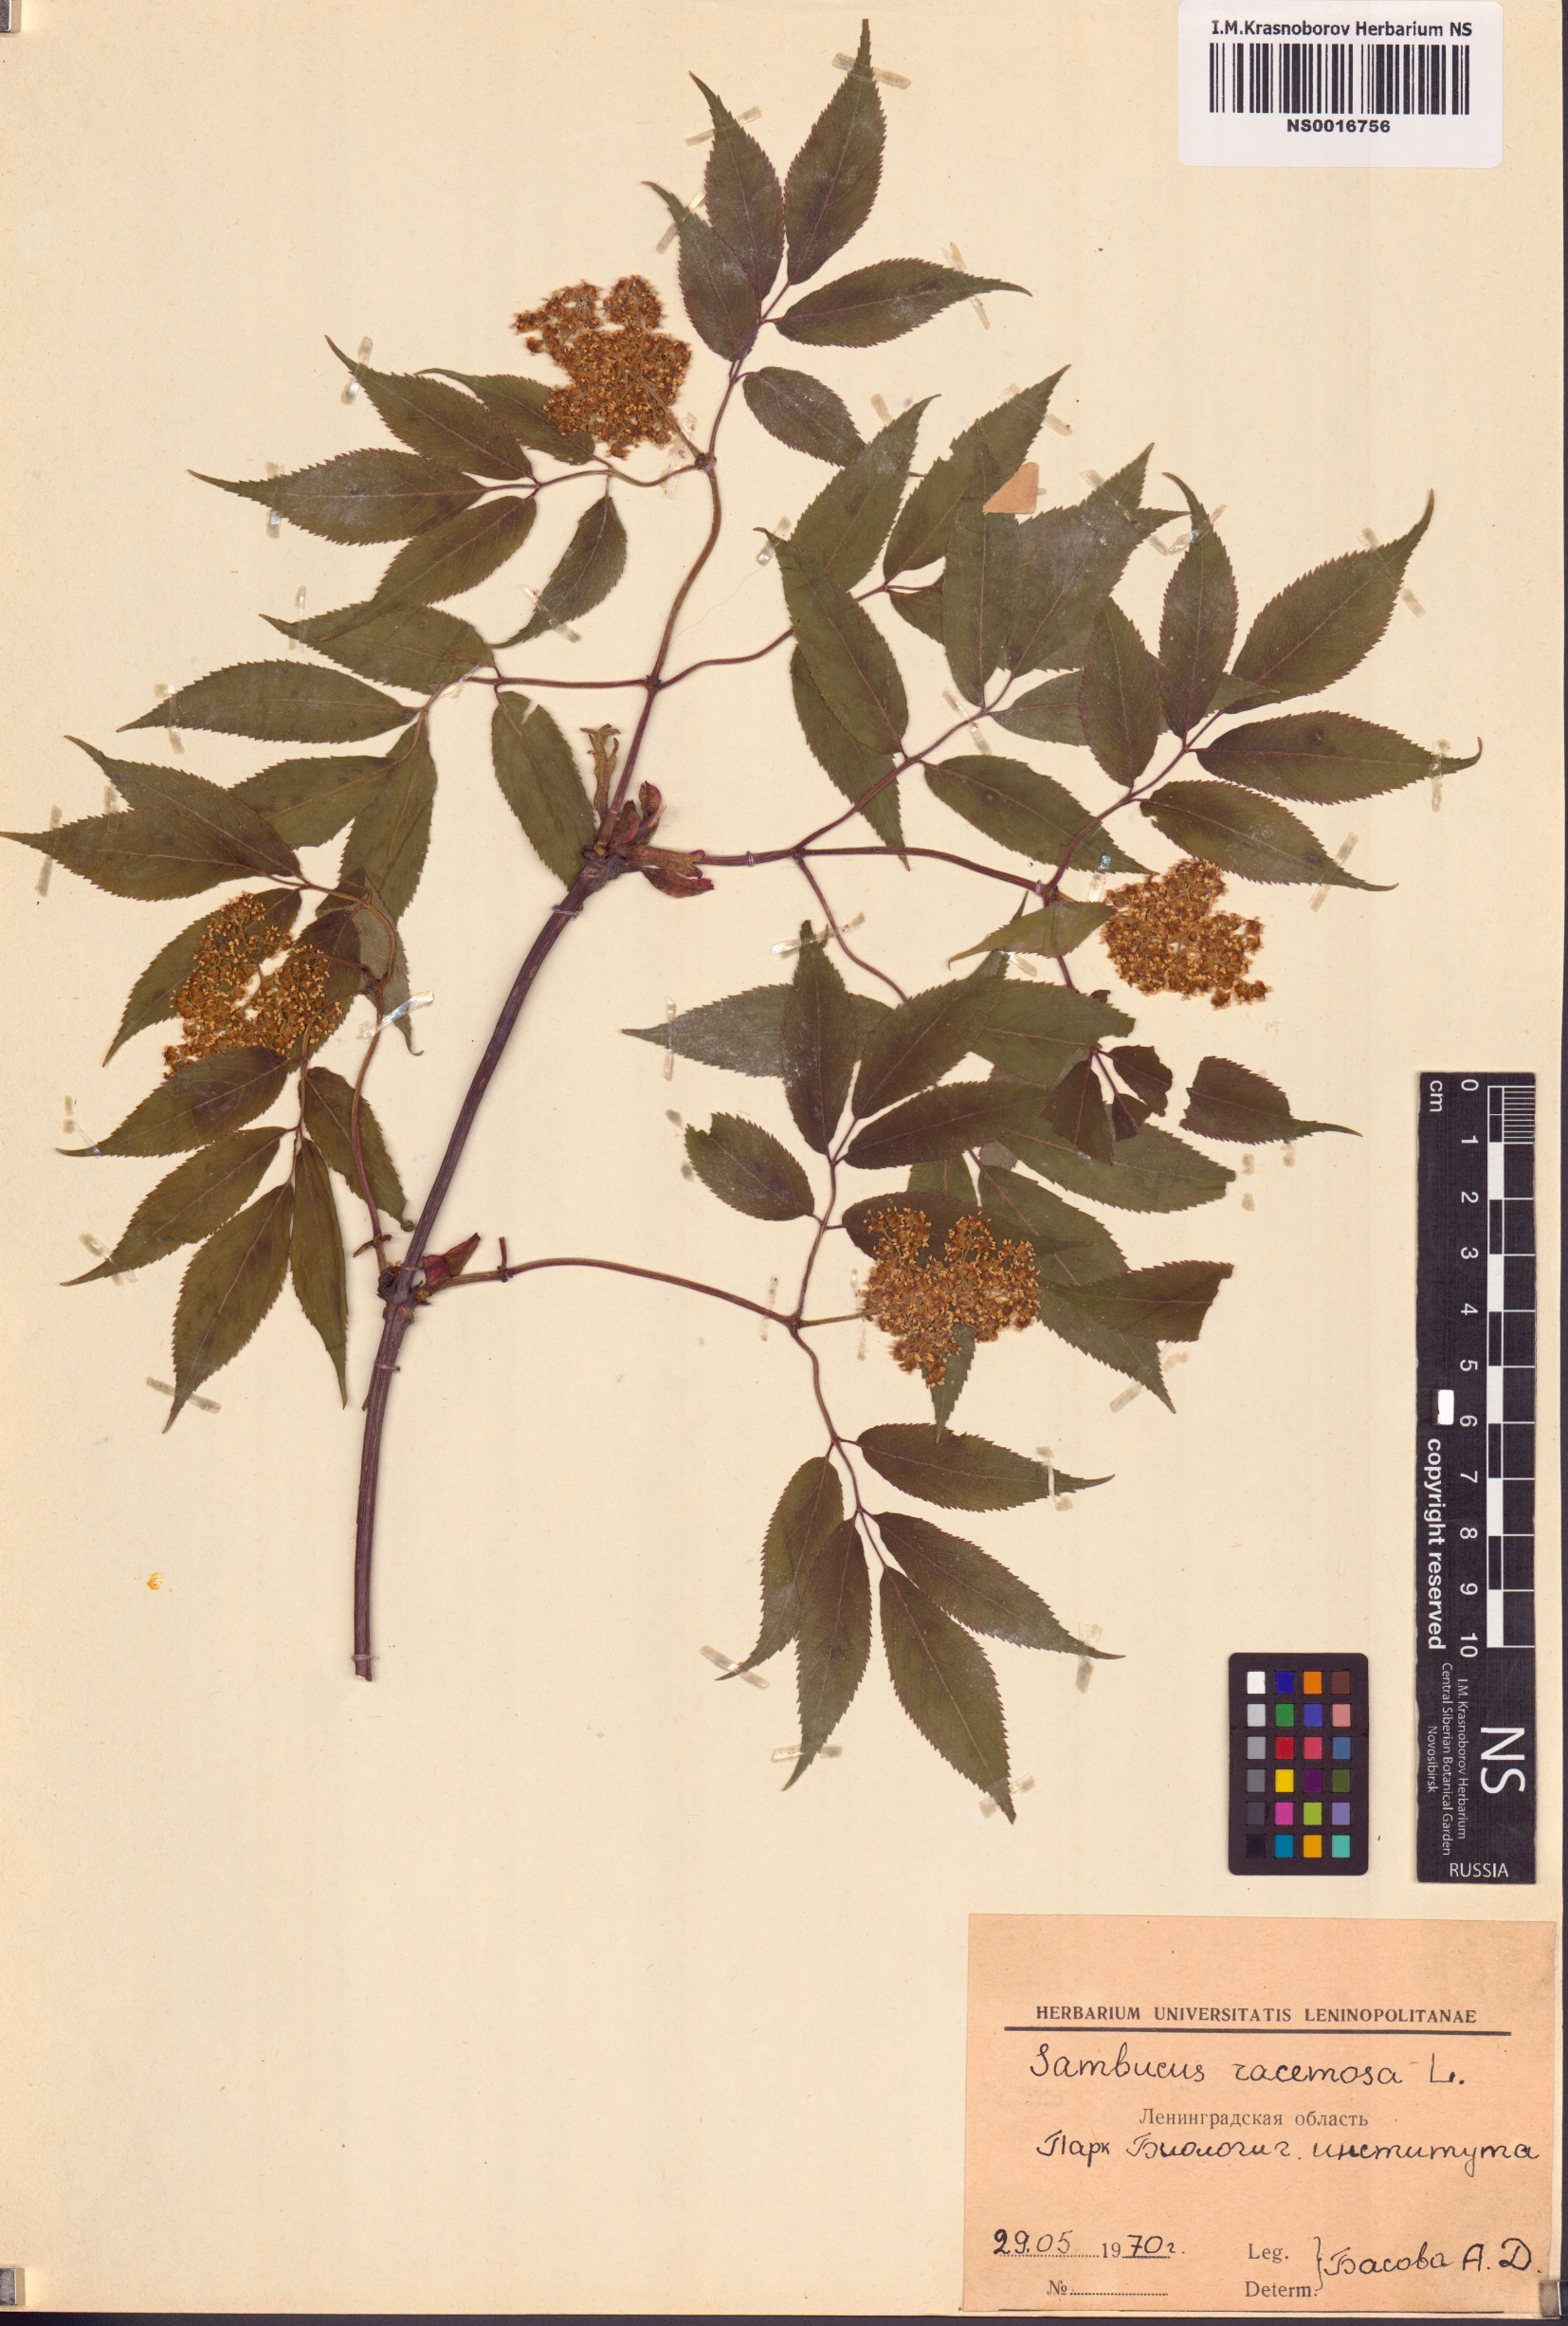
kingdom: Plantae
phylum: Tracheophyta
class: Magnoliopsida
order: Dipsacales
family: Viburnaceae
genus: Sambucus
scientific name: Sambucus racemosa
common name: Red-berried elder
